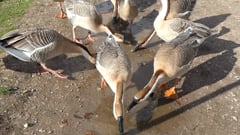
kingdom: Animalia
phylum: Chordata
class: Aves
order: Anseriformes
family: Anatidae
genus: Anser
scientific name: Anser cygnoides
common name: Swan goose
